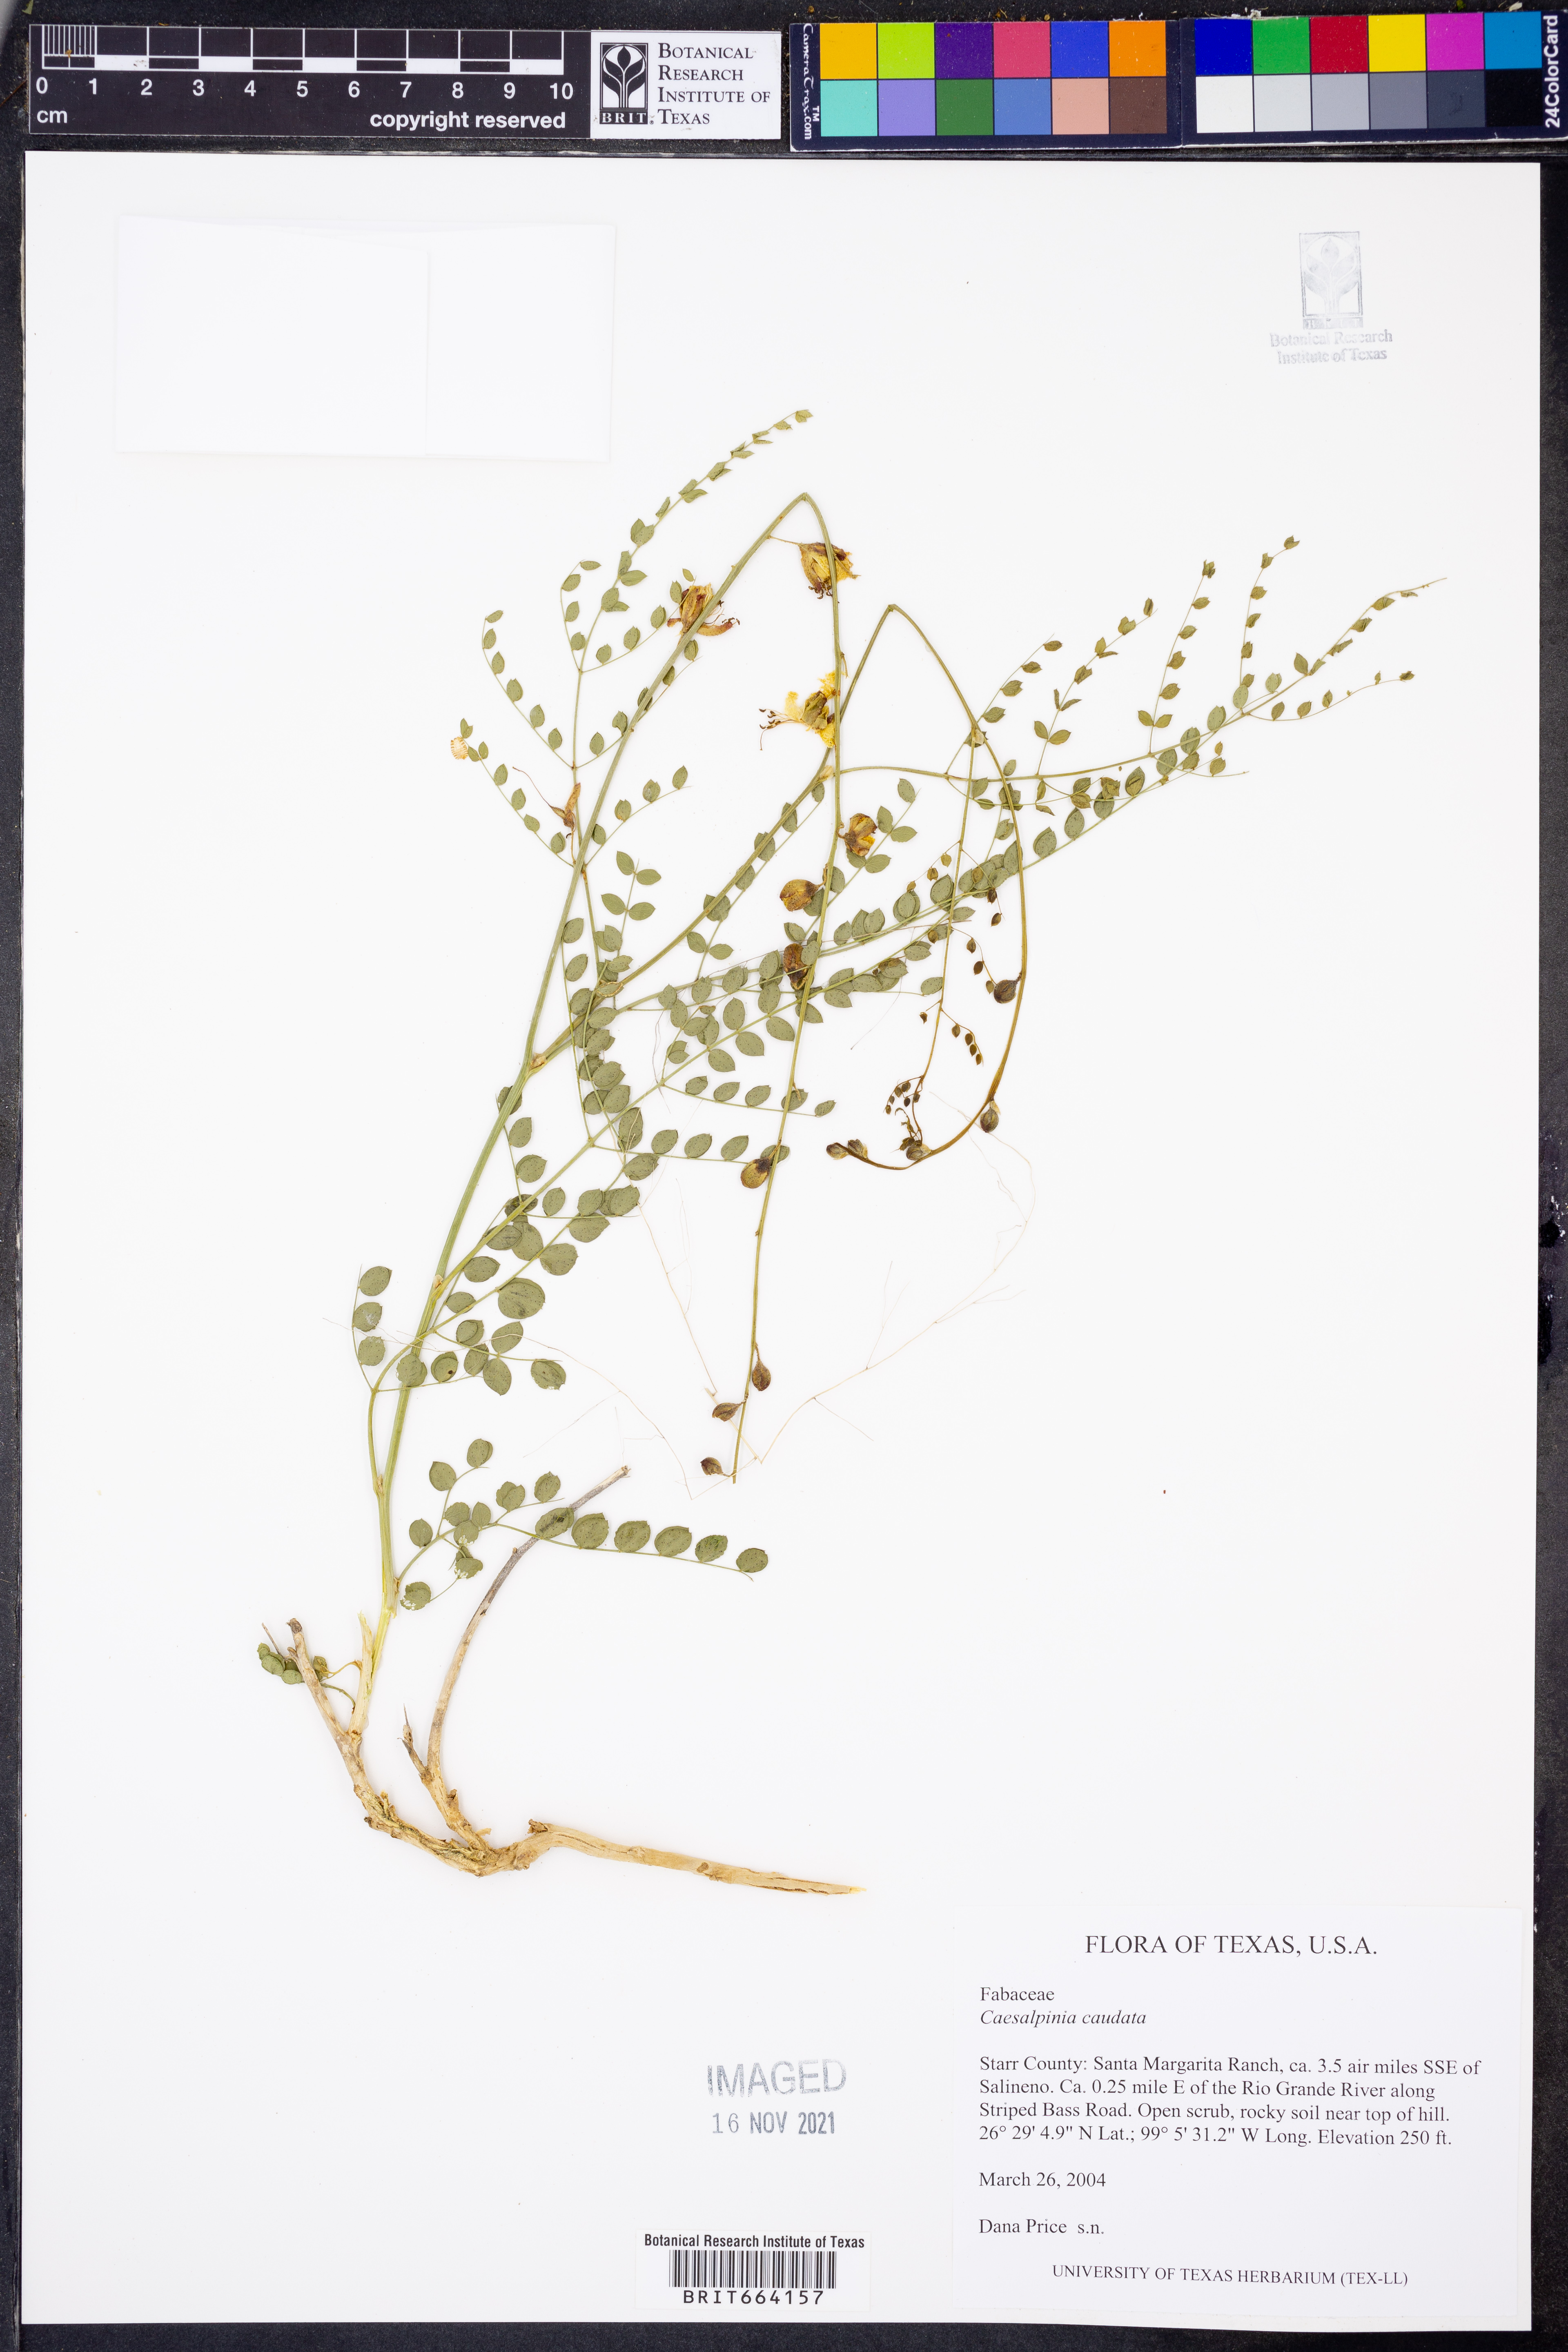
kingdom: Plantae
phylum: Tracheophyta
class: Magnoliopsida
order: Fabales
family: Fabaceae
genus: Erythrostemon
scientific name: Erythrostemon caudatus
